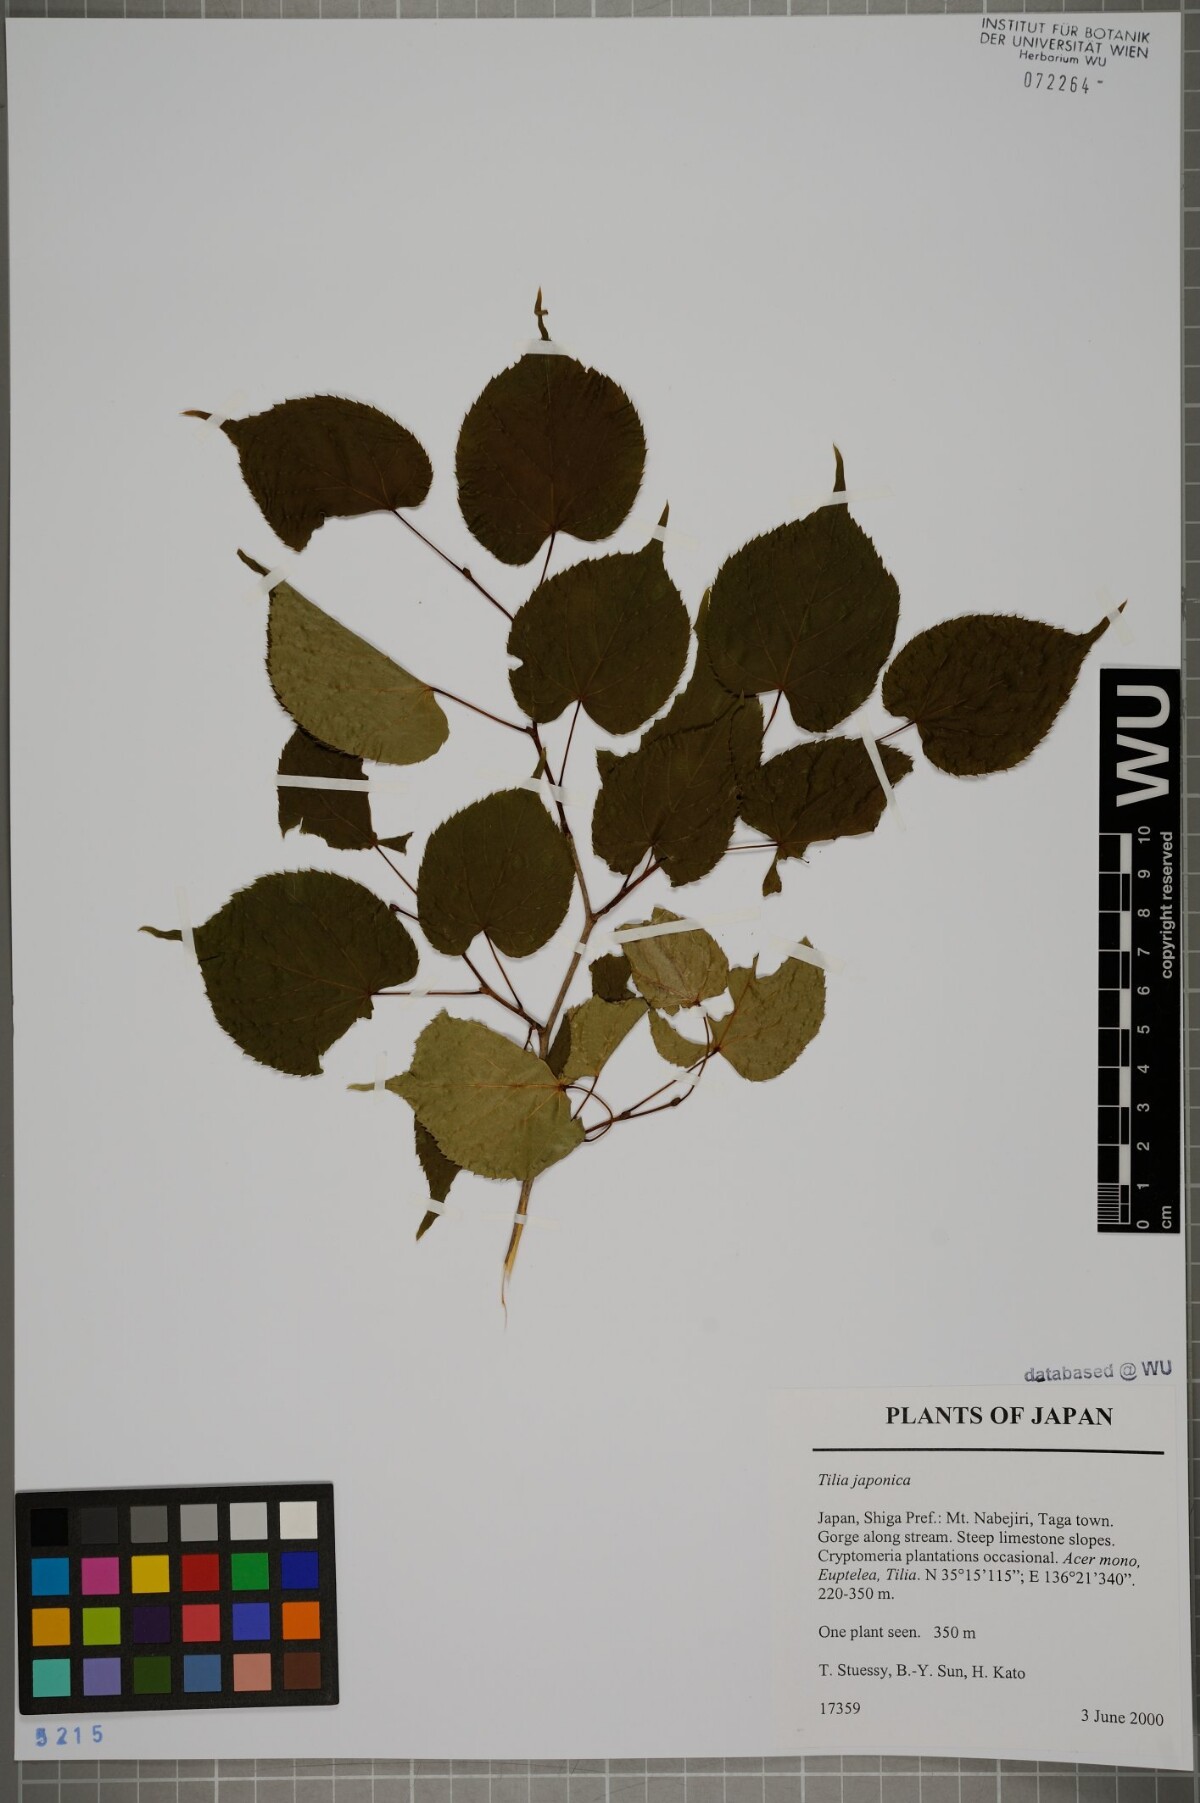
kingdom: Plantae
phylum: Tracheophyta
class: Magnoliopsida
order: Malvales
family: Malvaceae
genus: Tilia
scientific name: Tilia japonica
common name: Japanese lime
